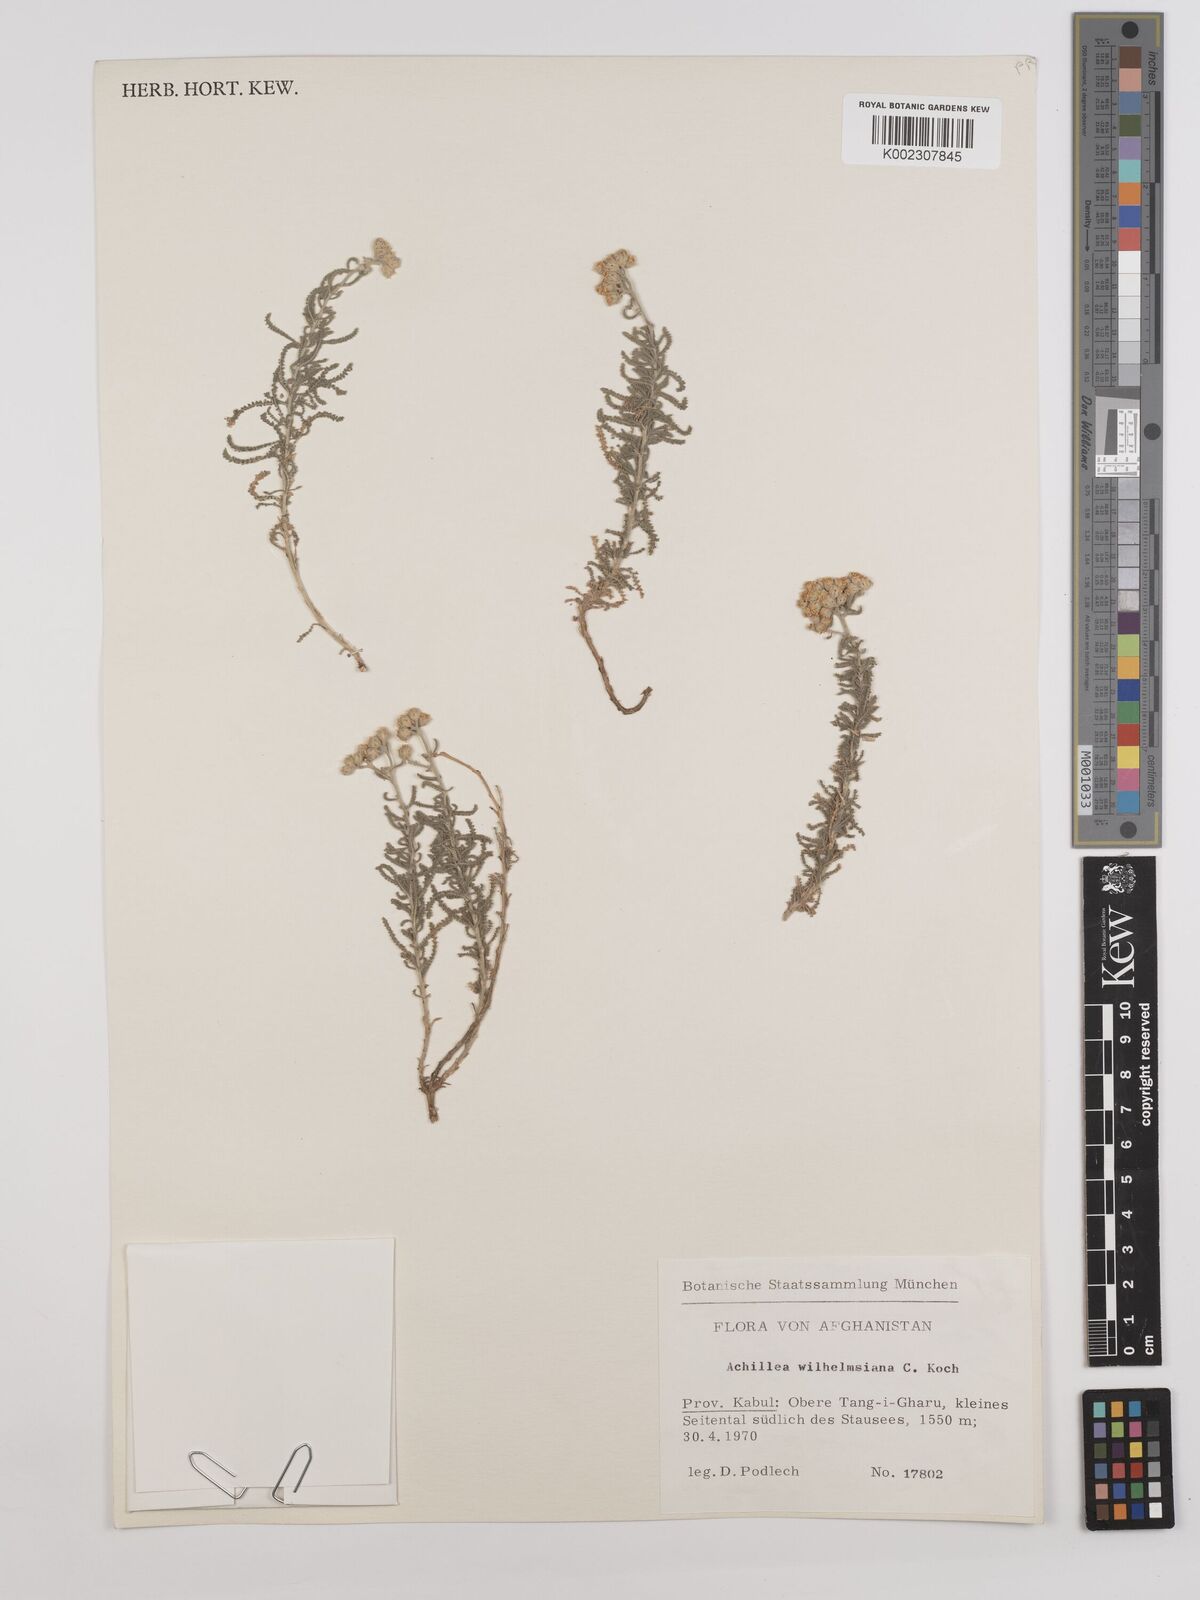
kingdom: Plantae
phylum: Tracheophyta
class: Magnoliopsida
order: Asterales
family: Asteraceae
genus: Achillea
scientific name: Achillea cretica
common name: Chamomile-leaved lavender-cotton
